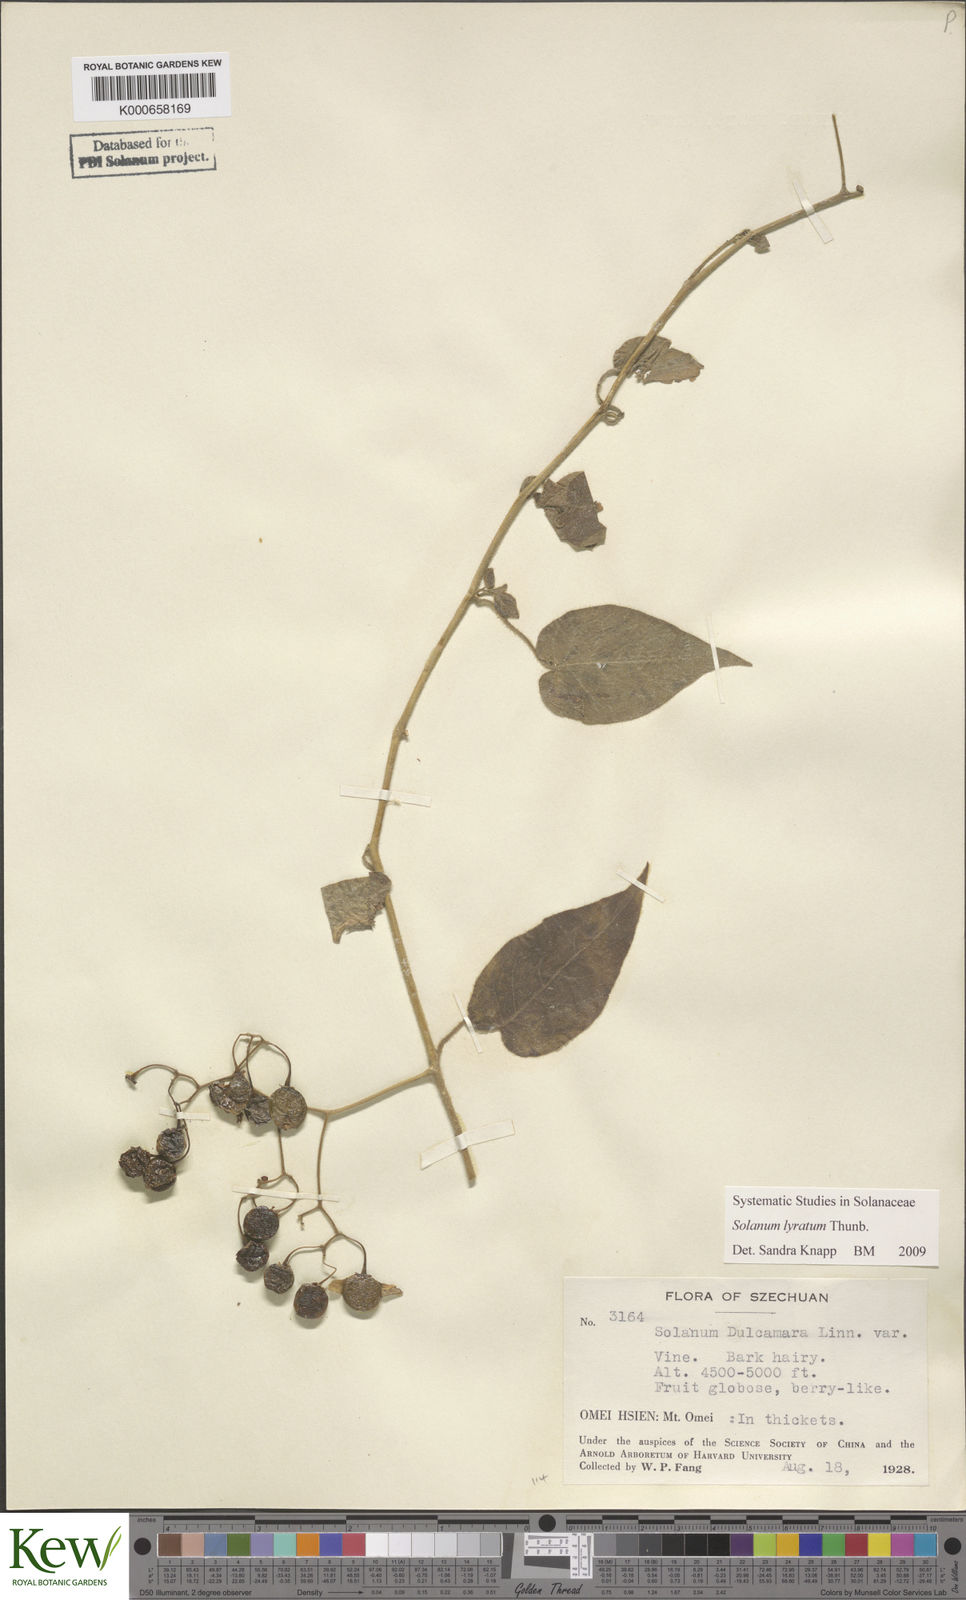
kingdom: Plantae
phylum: Tracheophyta
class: Magnoliopsida
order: Solanales
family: Solanaceae
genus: Solanum
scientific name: Solanum lyratum
